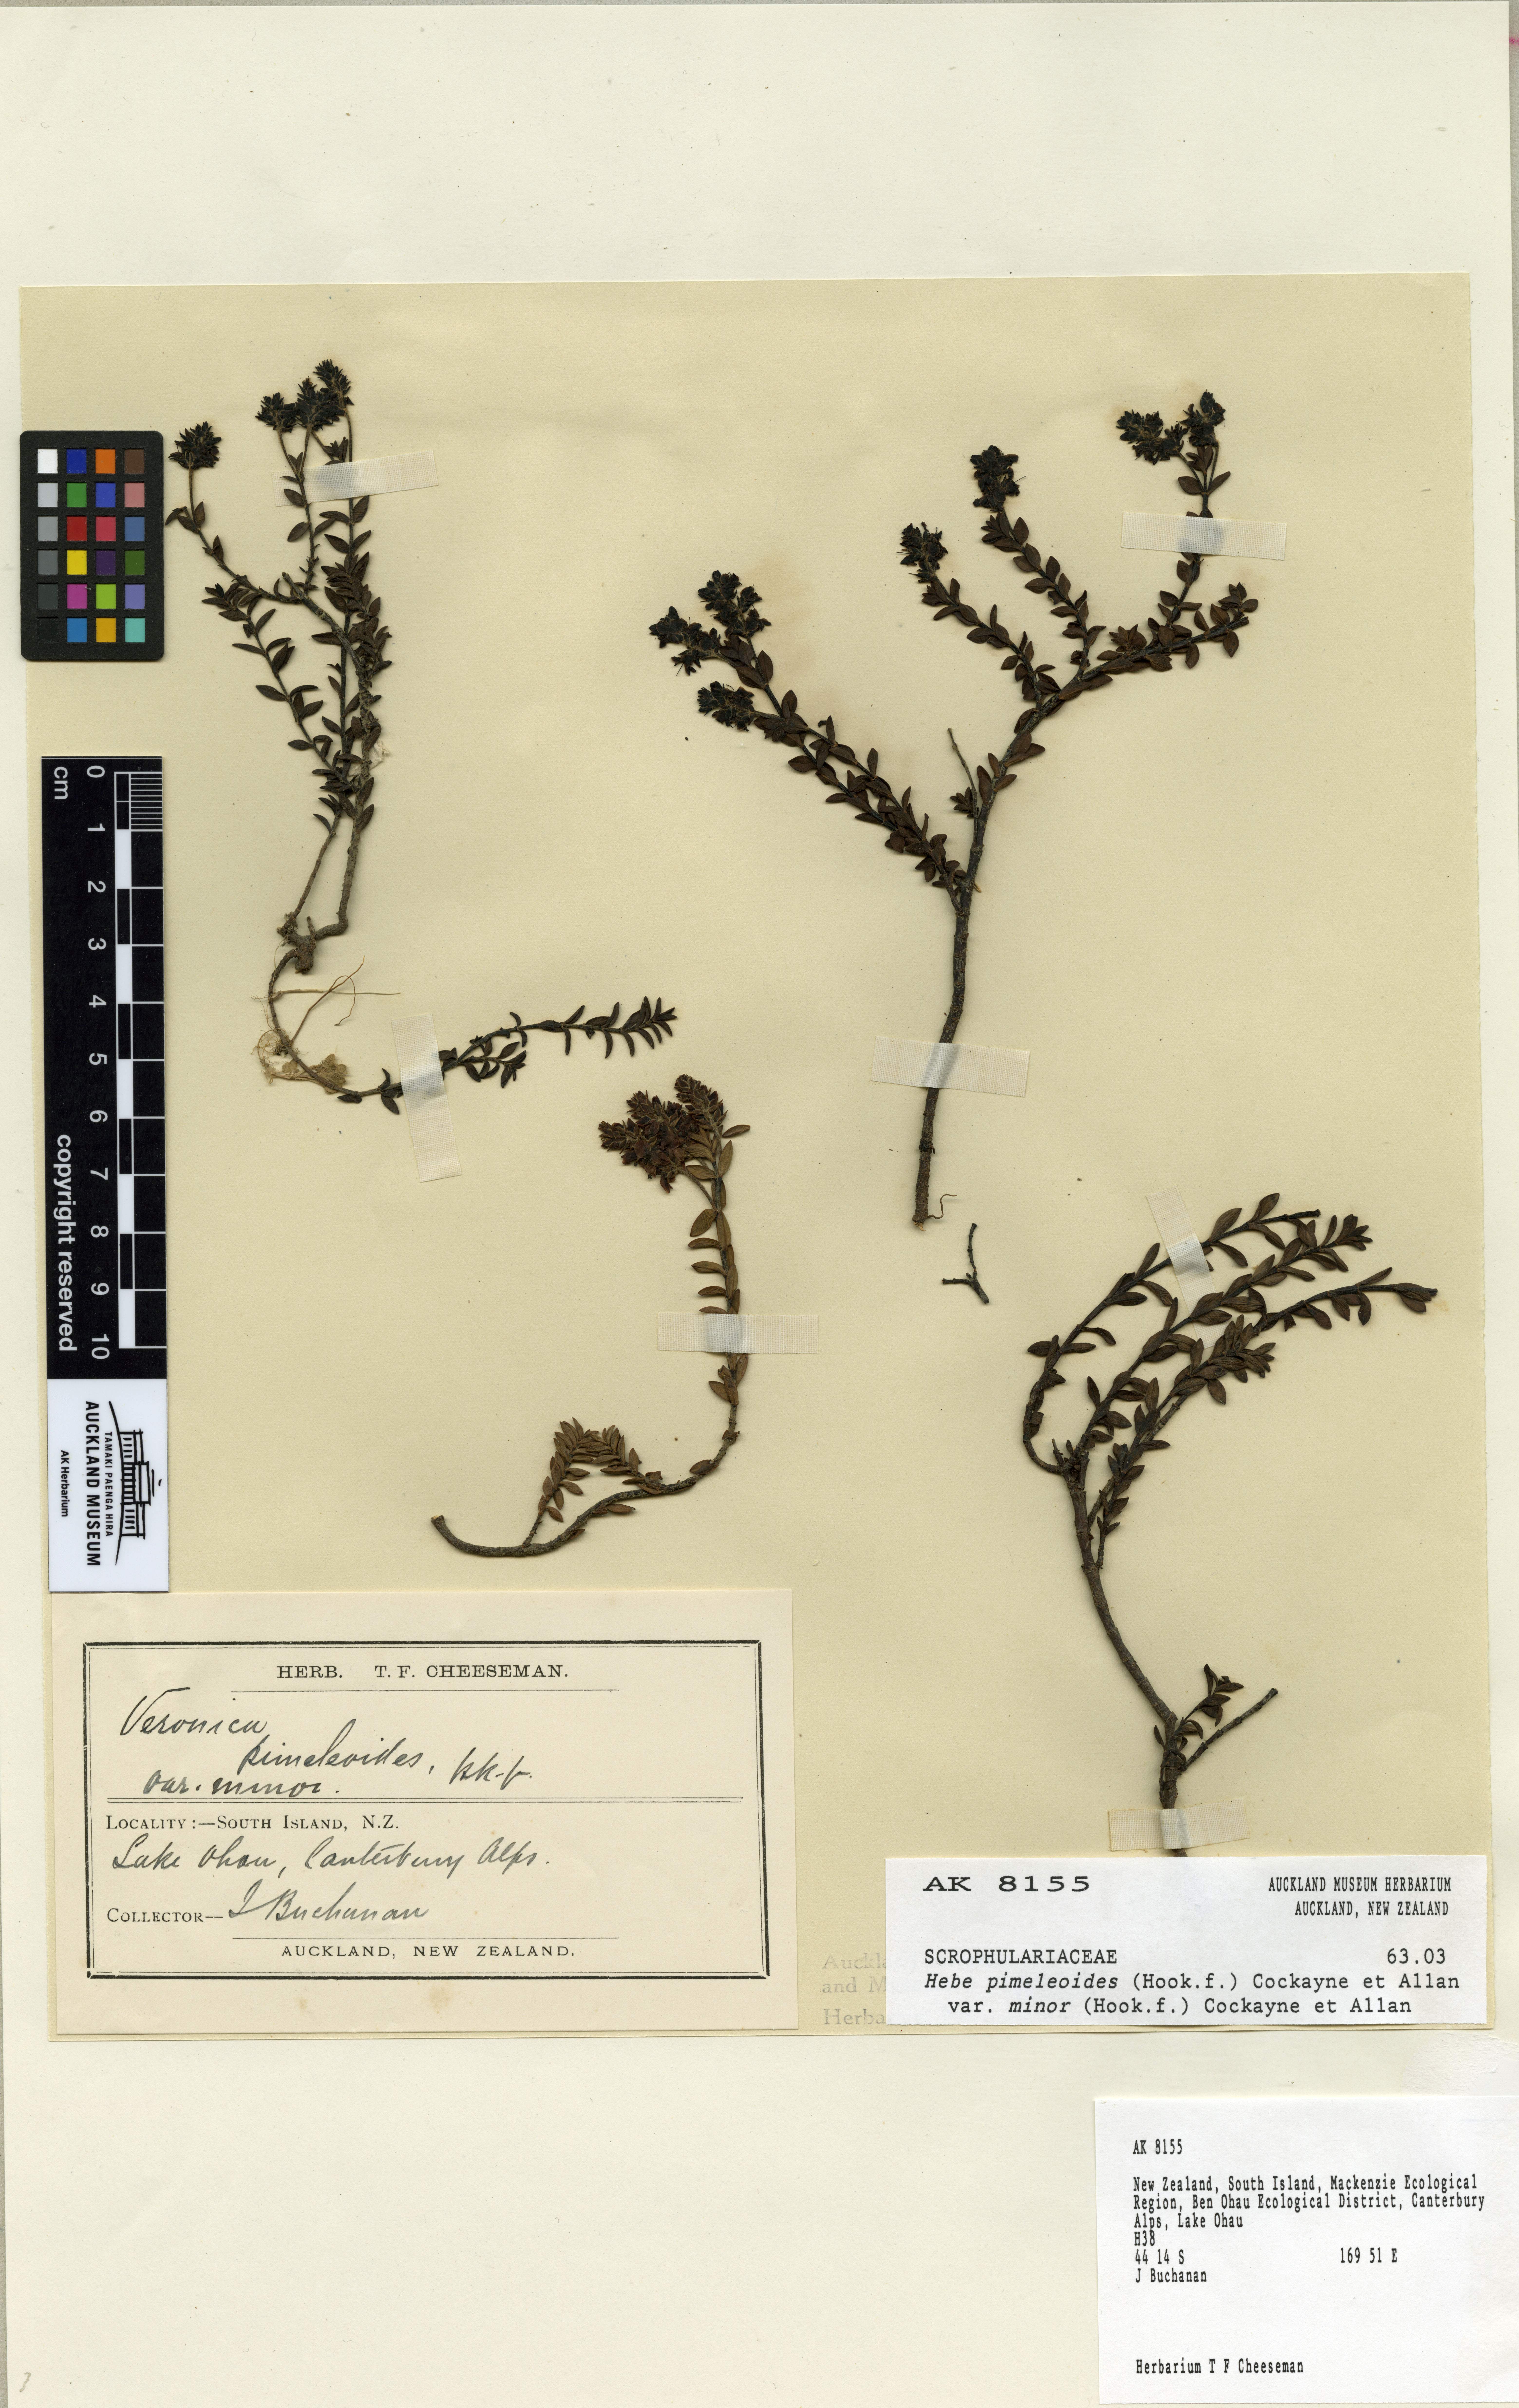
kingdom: Plantae
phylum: Tracheophyta
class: Magnoliopsida
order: Lamiales
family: Plantaginaceae
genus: Veronica
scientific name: Veronica pimeleoides
